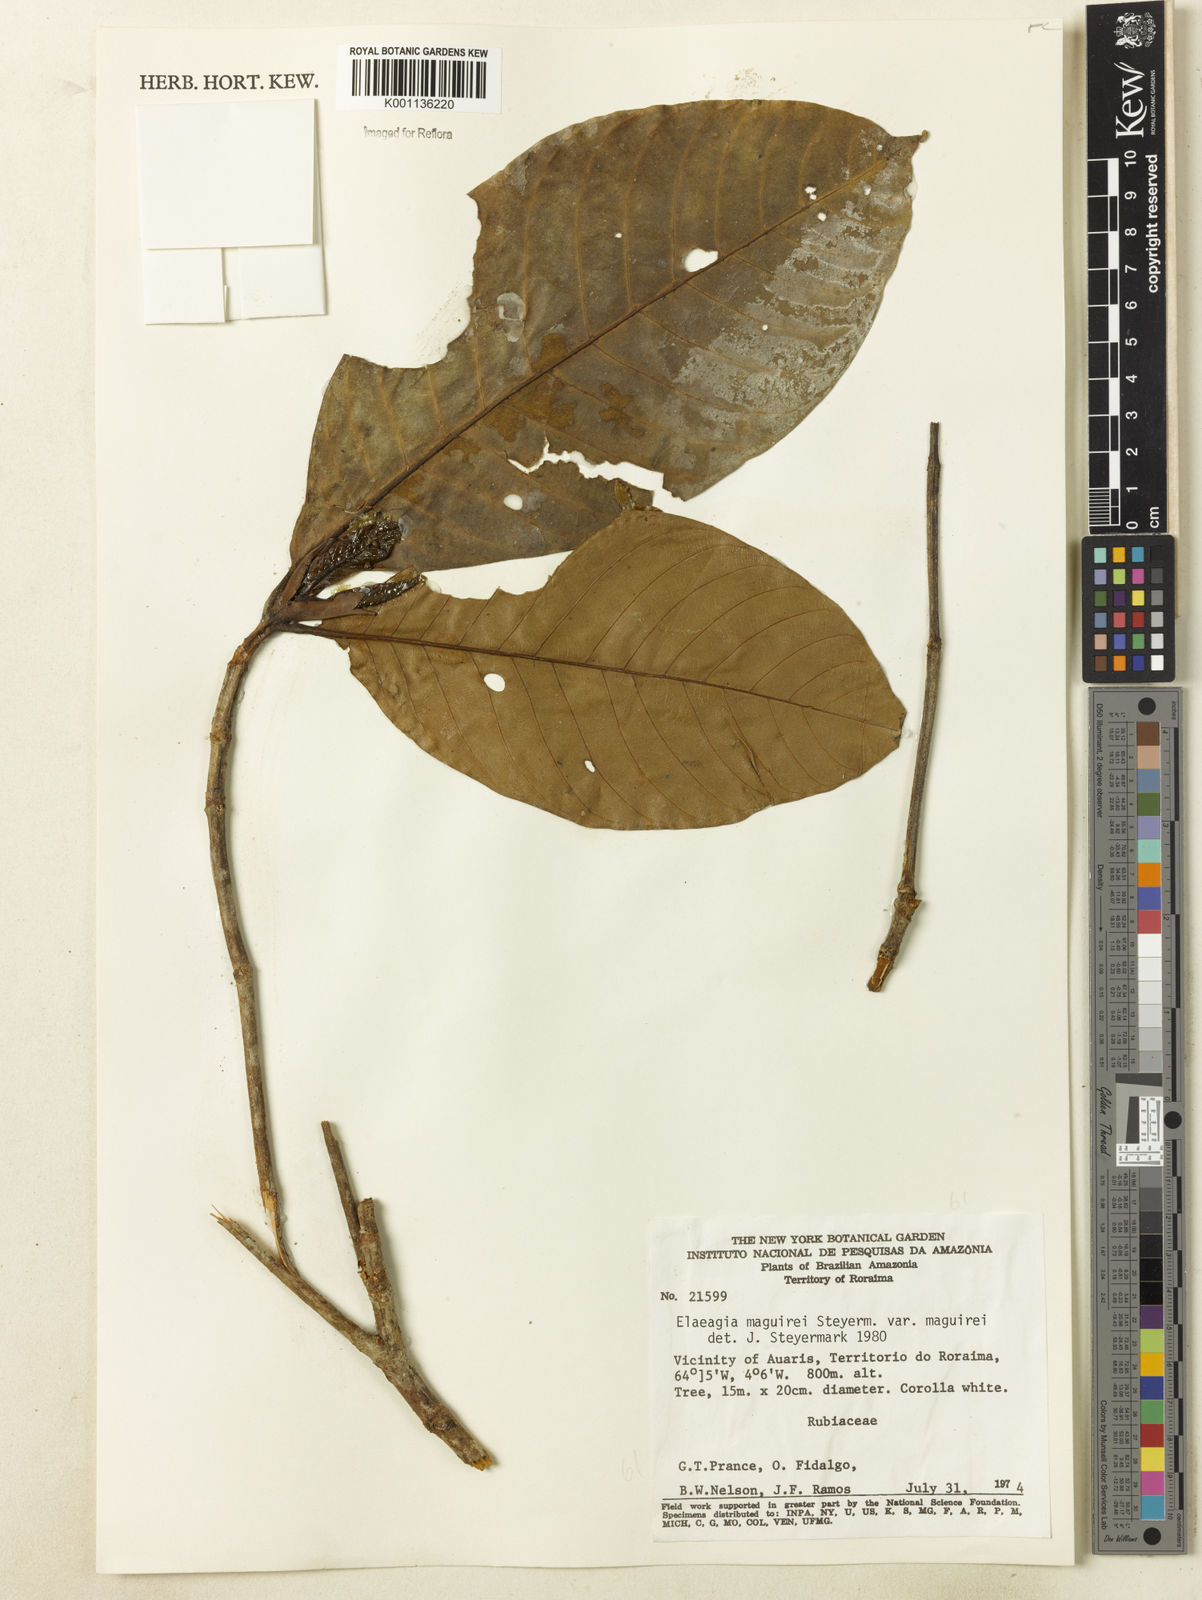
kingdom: Plantae
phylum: Tracheophyta
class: Magnoliopsida
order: Gentianales
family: Rubiaceae
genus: Elaeagia
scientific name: Elaeagia maguirei
